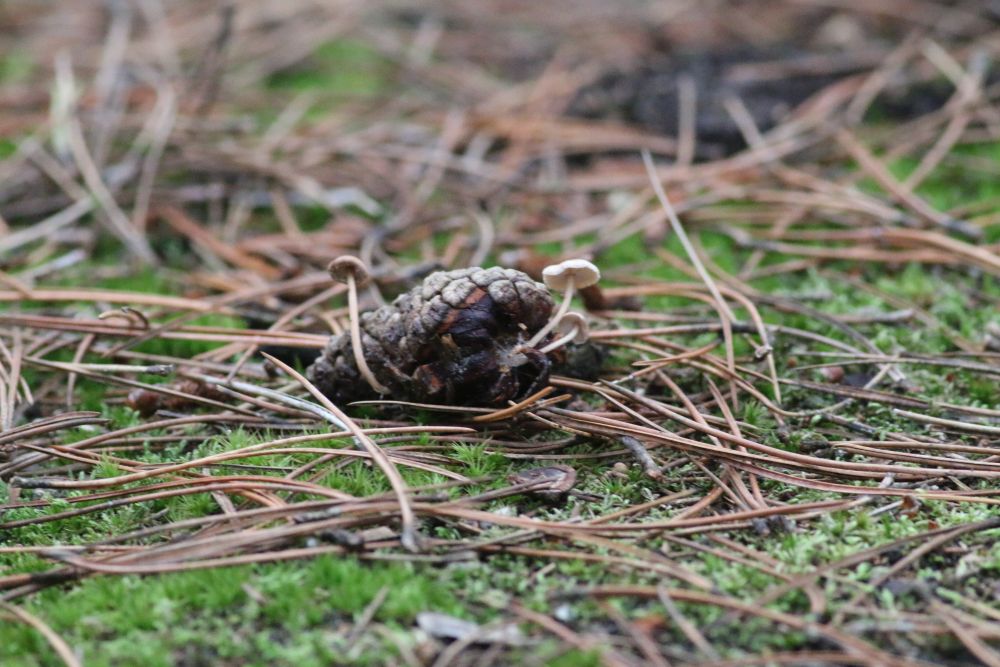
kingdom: Fungi
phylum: Basidiomycota
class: Agaricomycetes
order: Agaricales
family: Marasmiaceae
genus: Baeospora
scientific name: Baeospora myosura
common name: koglebruskhat
